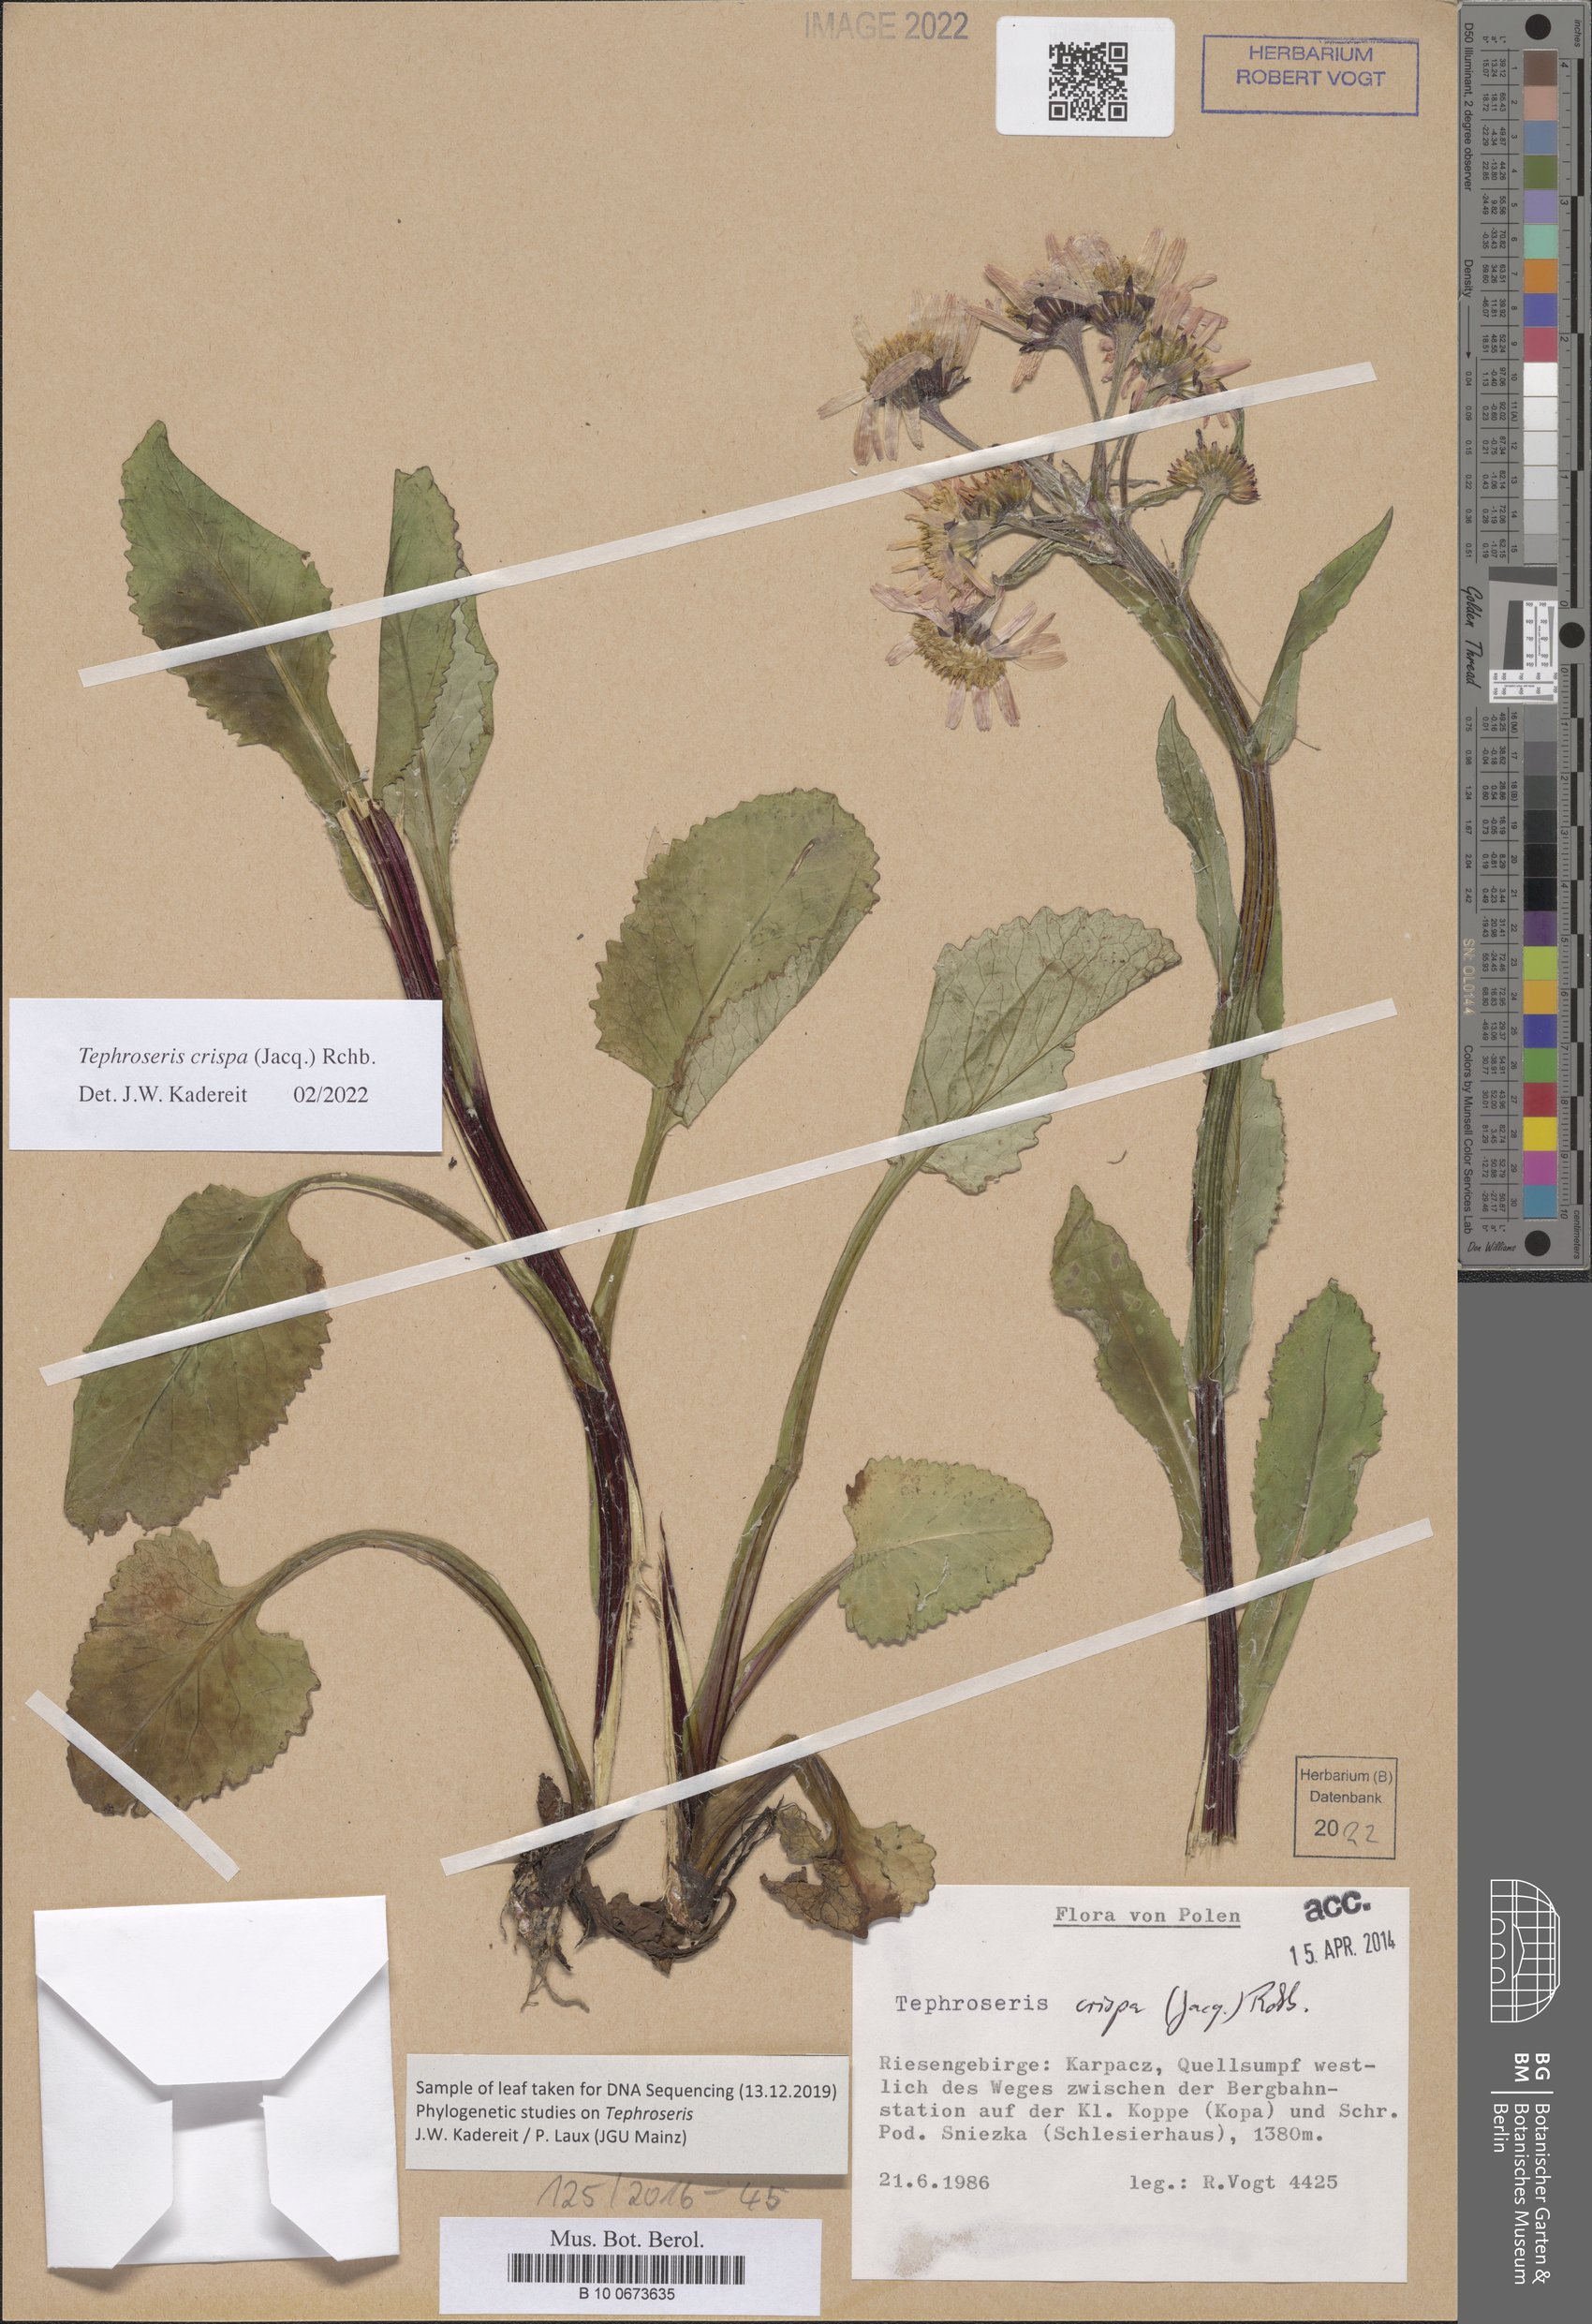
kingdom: Plantae
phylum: Tracheophyta
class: Magnoliopsida
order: Asterales
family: Asteraceae
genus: Tephroseris
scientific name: Tephroseris crispa
